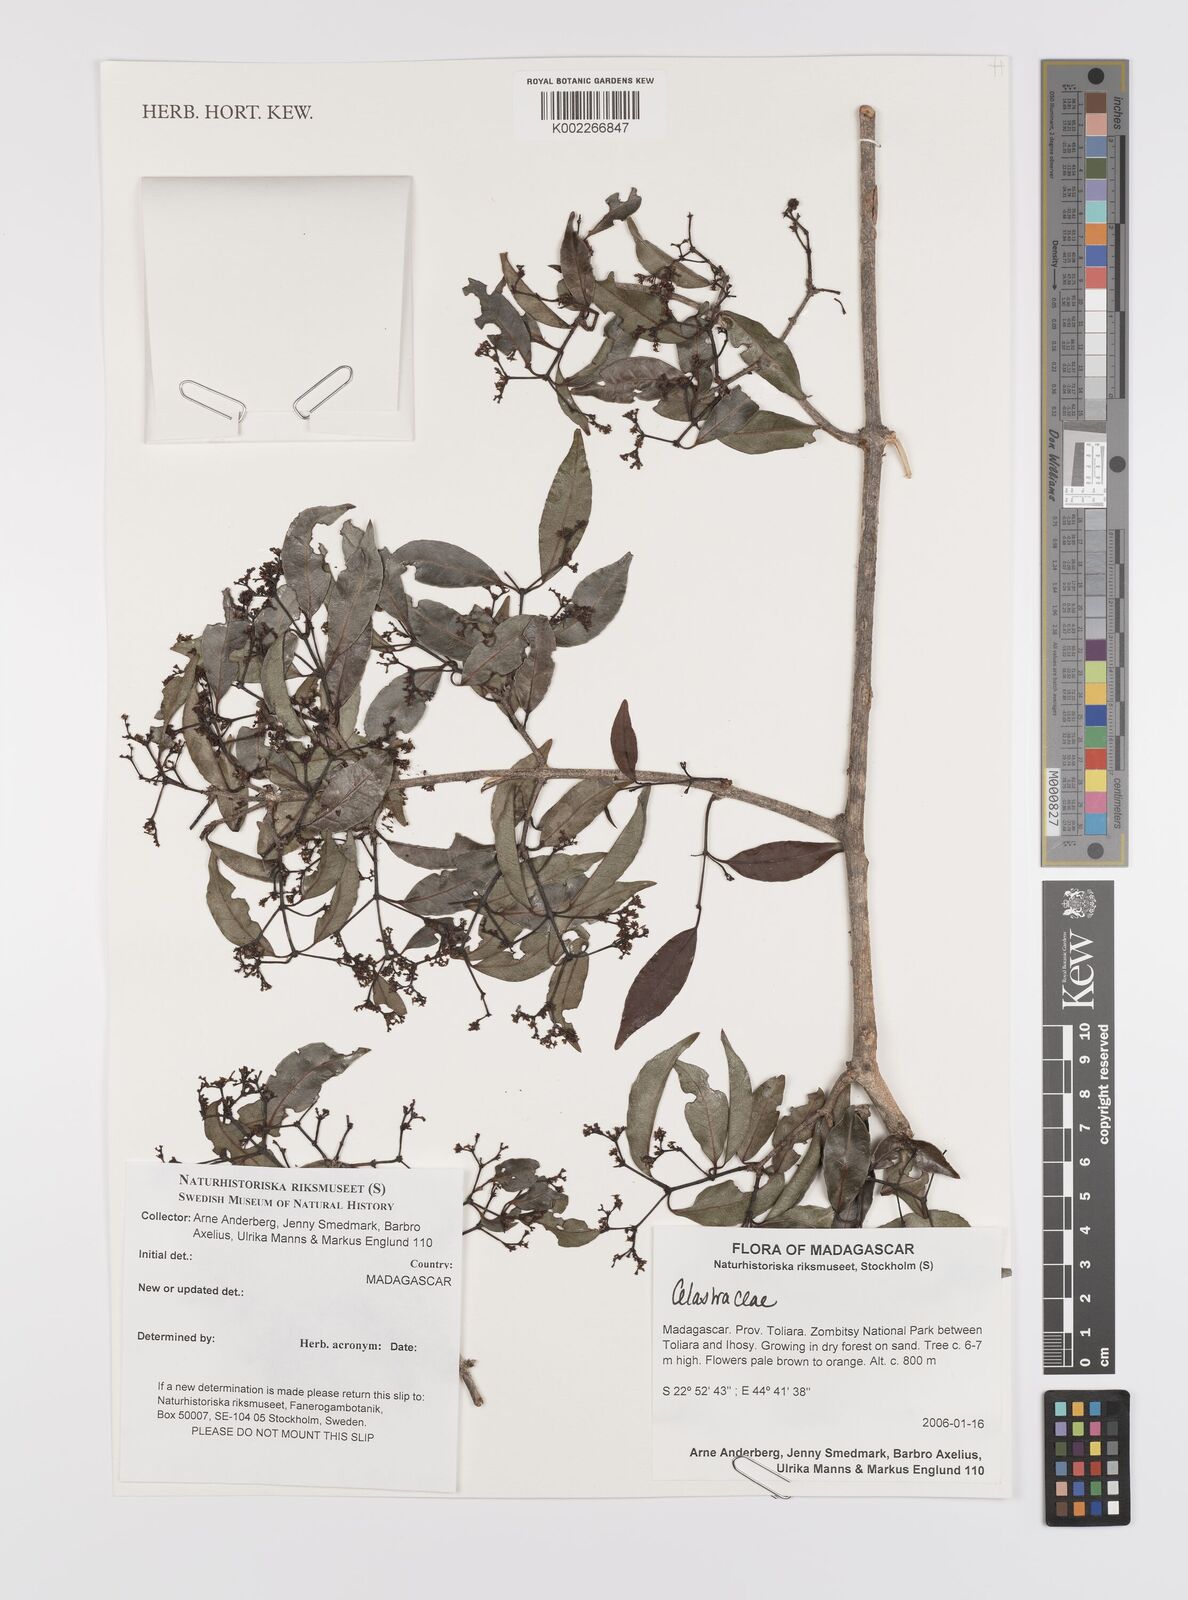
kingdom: Plantae
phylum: Tracheophyta
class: Magnoliopsida
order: Celastrales
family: Celastraceae
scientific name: Celastraceae
